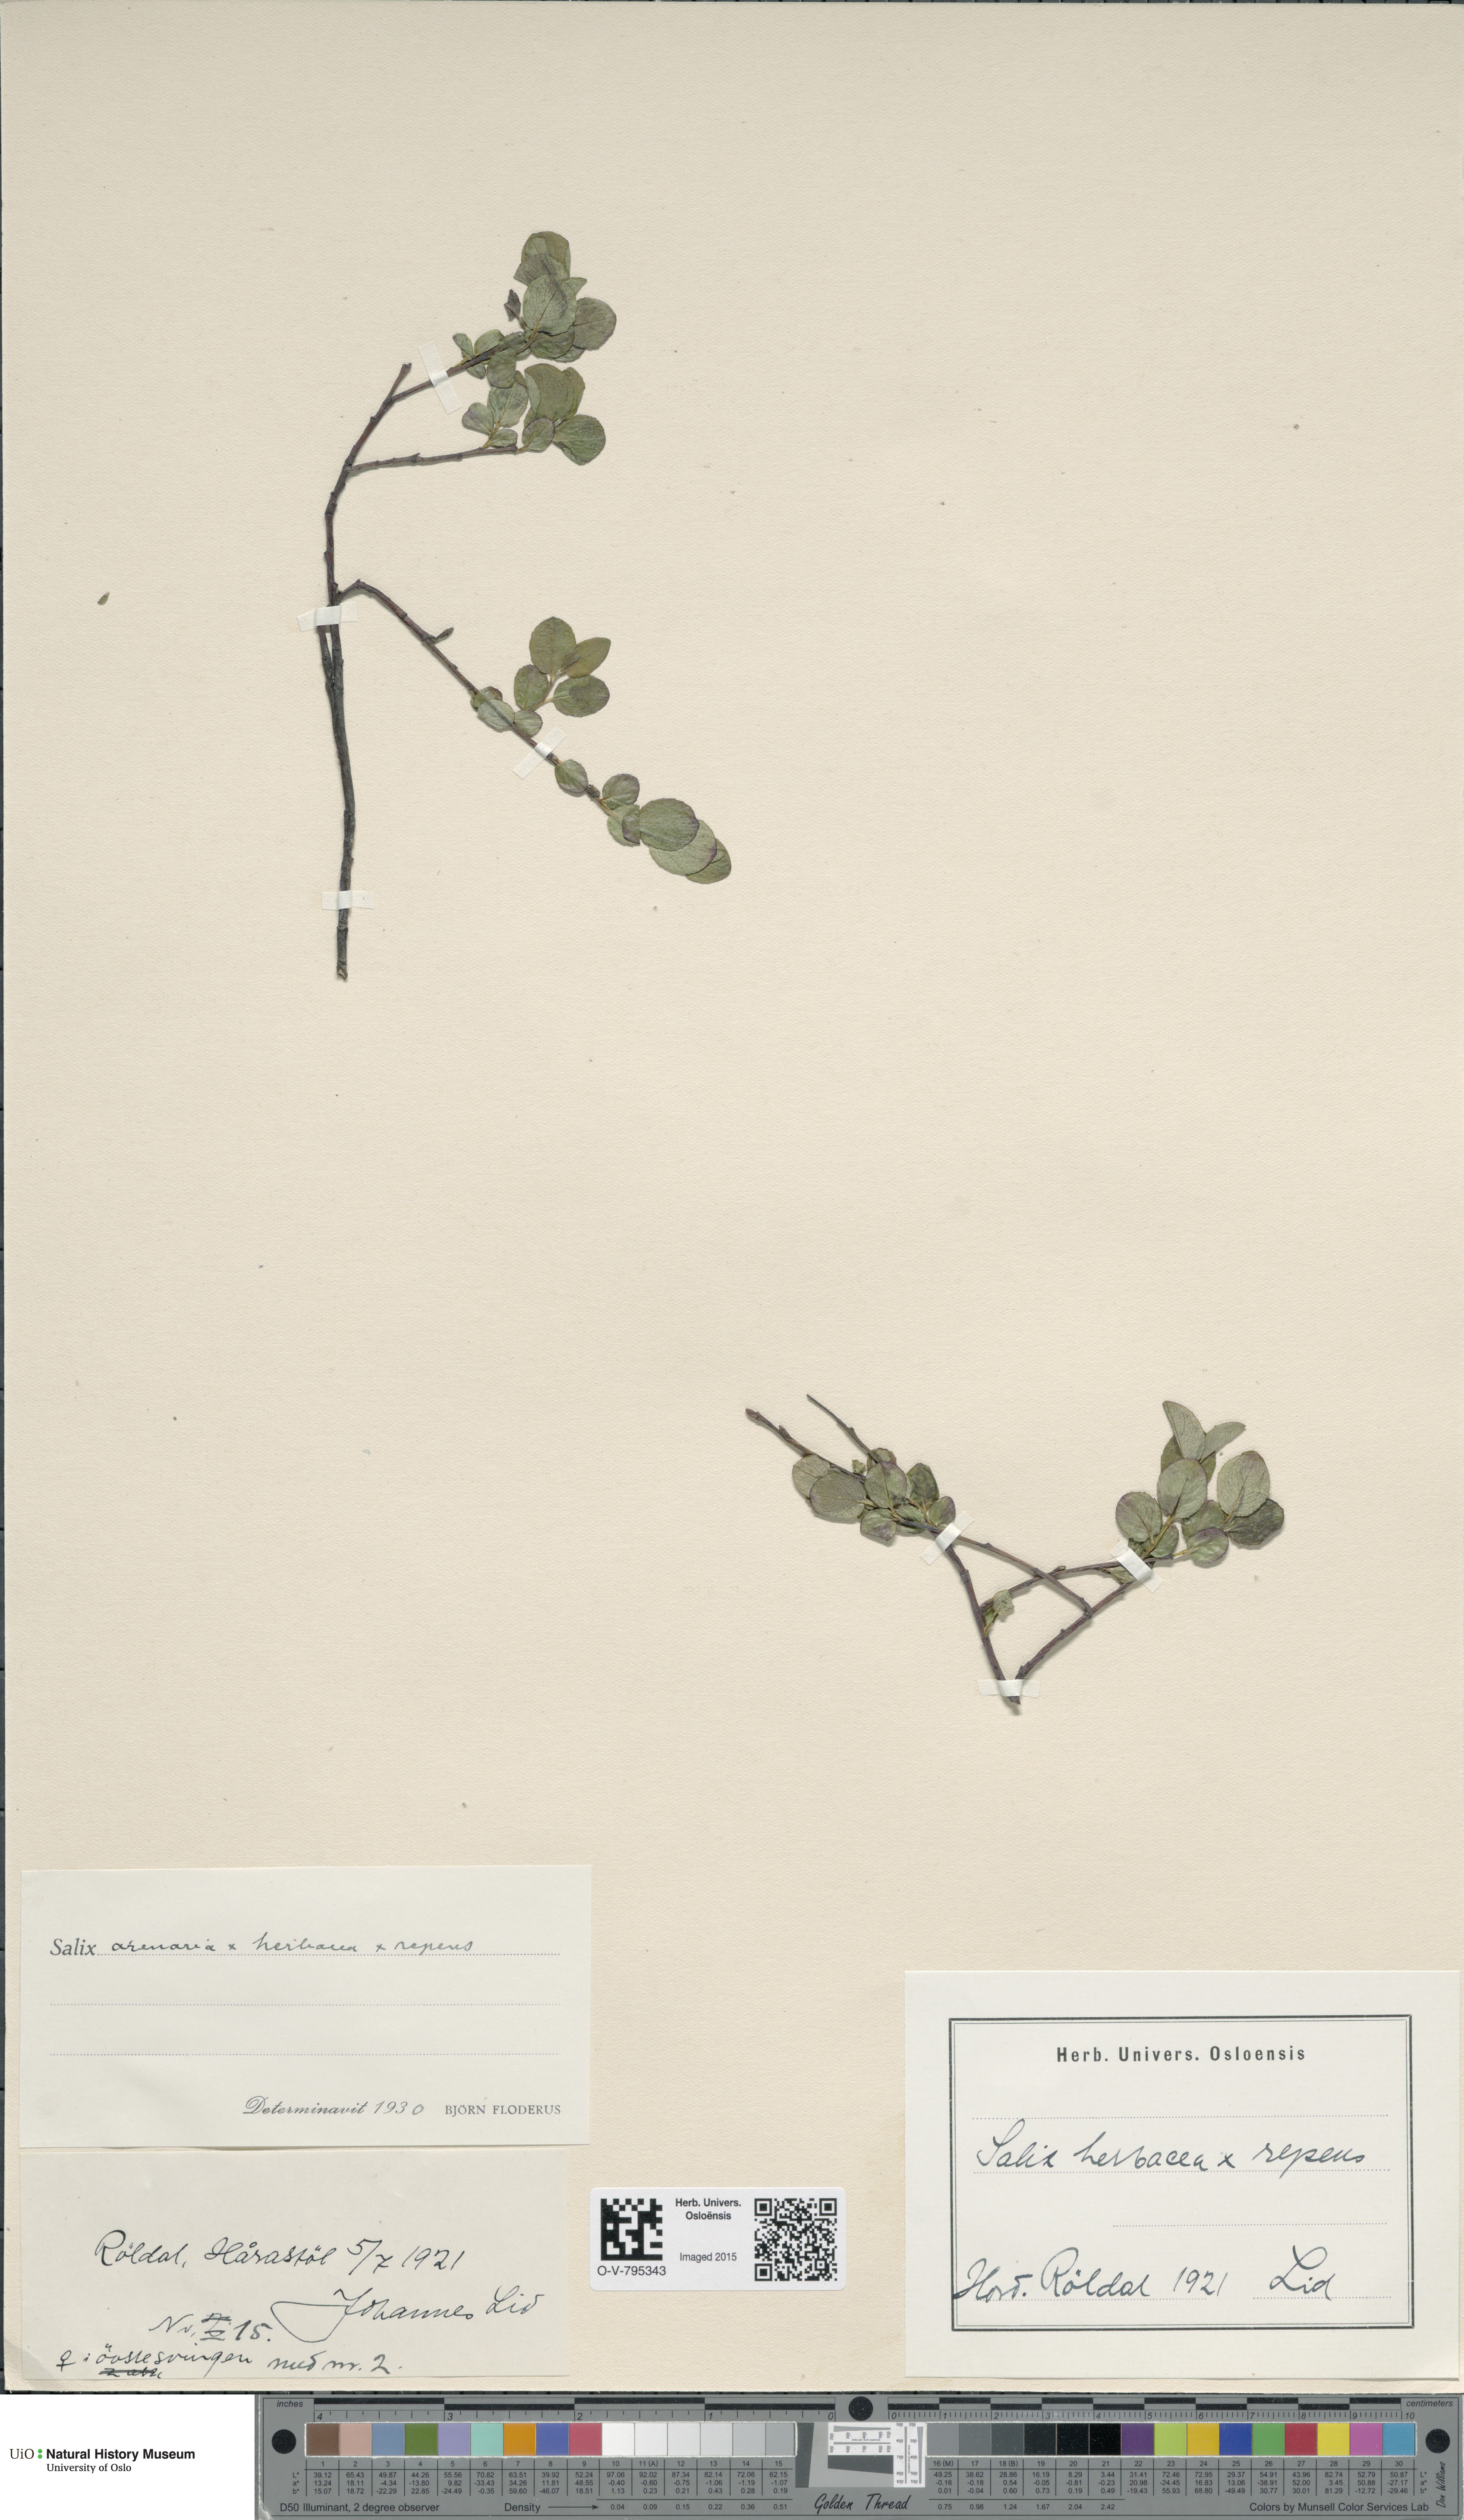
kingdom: Plantae
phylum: Tracheophyta
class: Magnoliopsida
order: Malpighiales
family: Salicaceae
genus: Salix
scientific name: Salix
